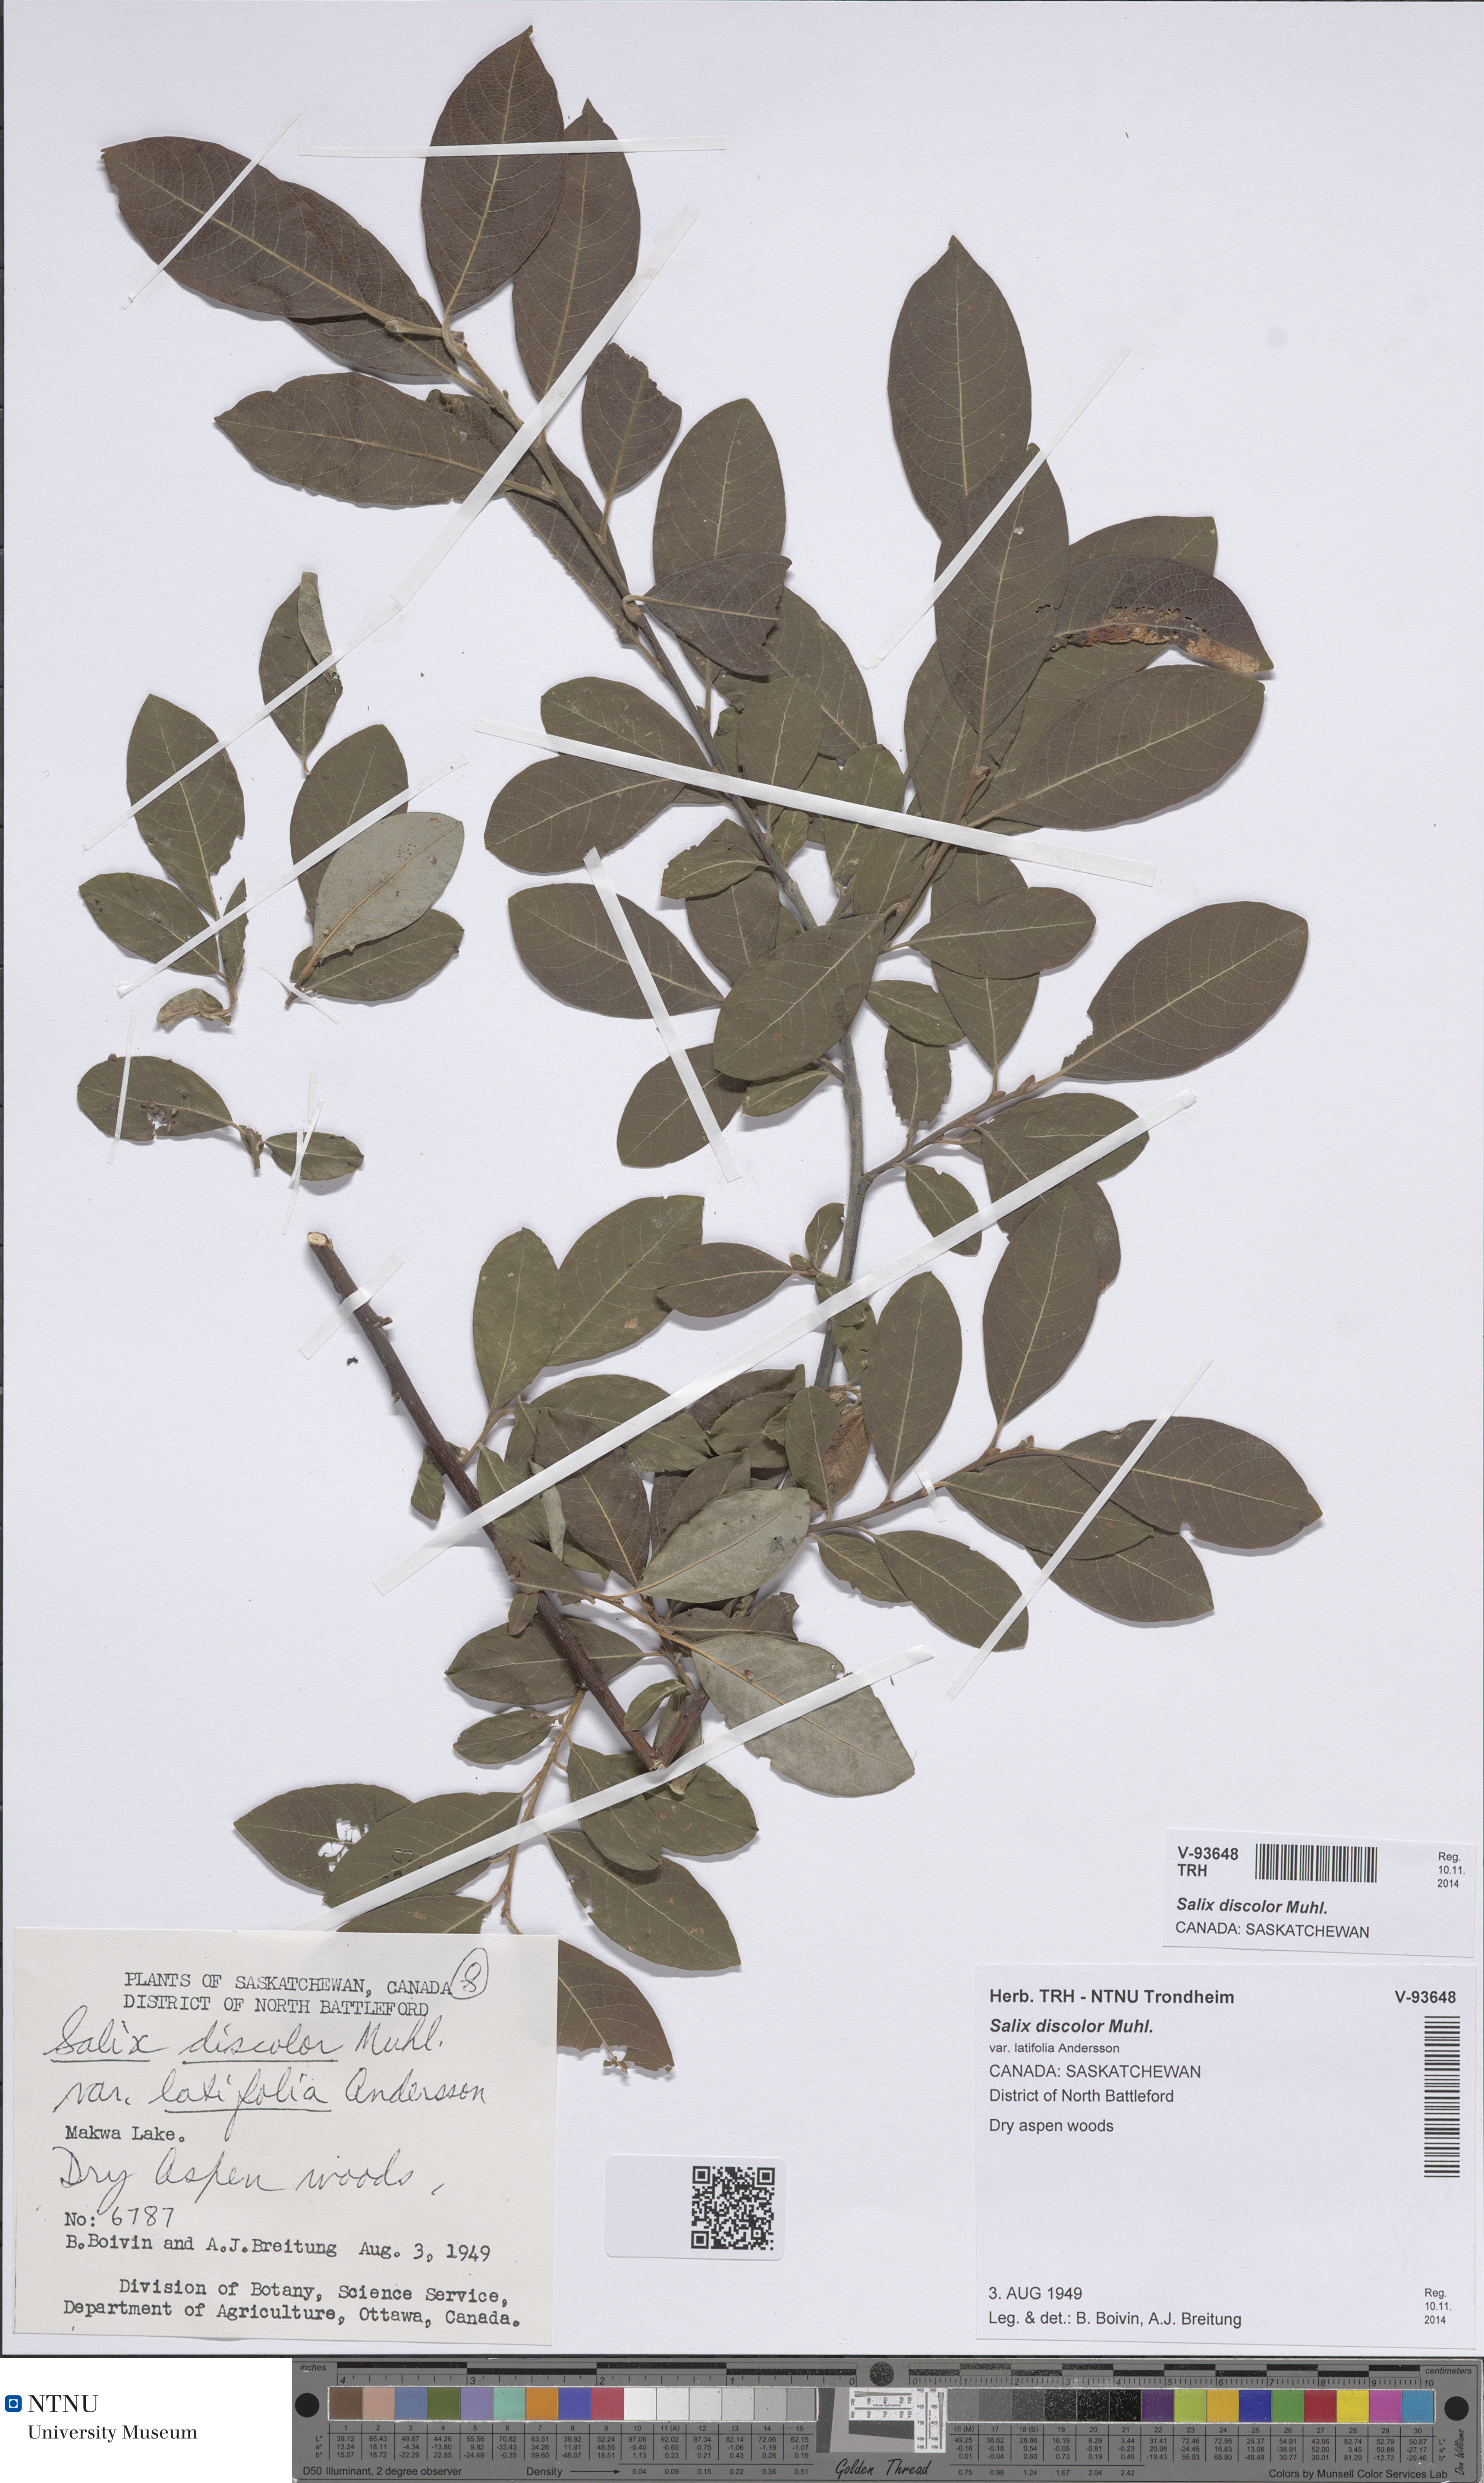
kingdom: Plantae
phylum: Tracheophyta
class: Magnoliopsida
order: Malpighiales
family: Salicaceae
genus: Salix
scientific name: Salix discolor
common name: Glaucous willow
